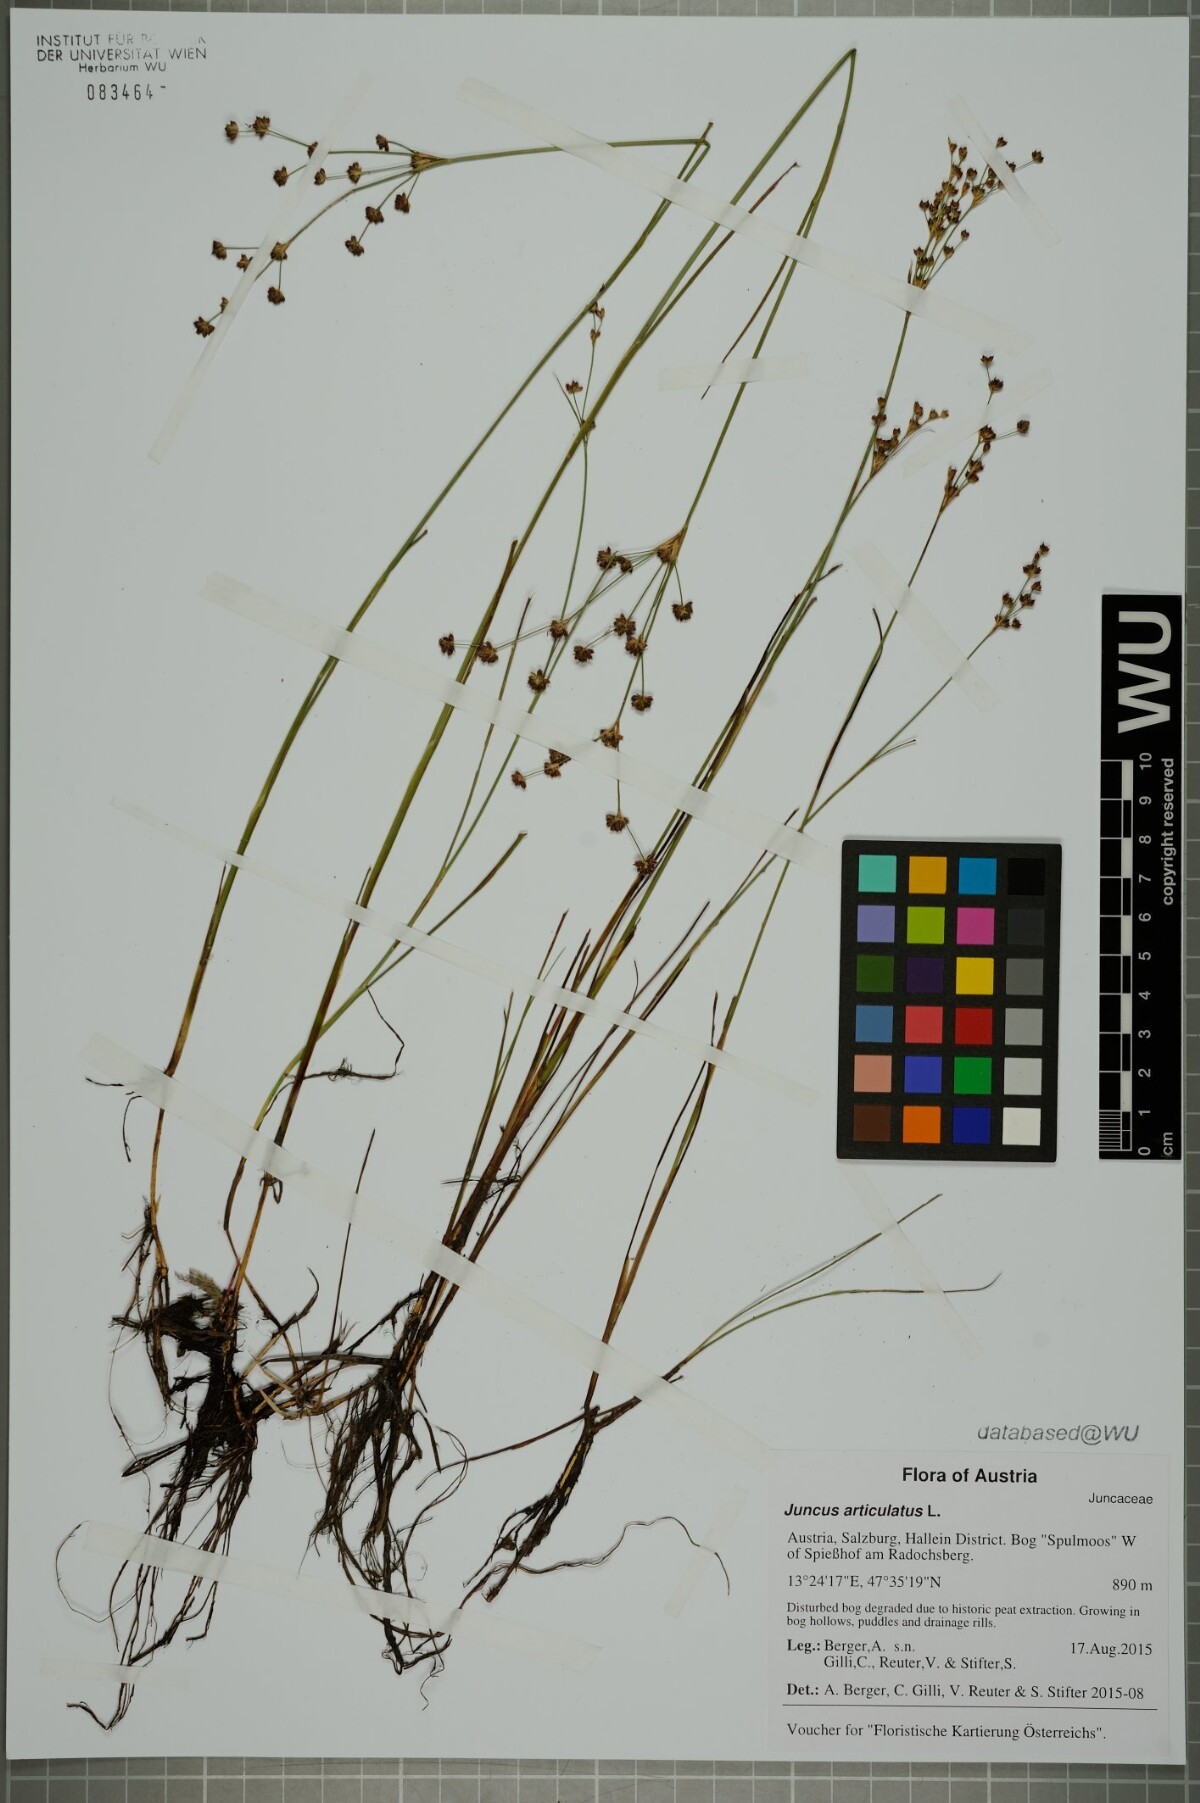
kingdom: Plantae
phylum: Tracheophyta
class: Liliopsida
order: Poales
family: Juncaceae
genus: Juncus
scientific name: Juncus articulatus
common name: Jointed rush
